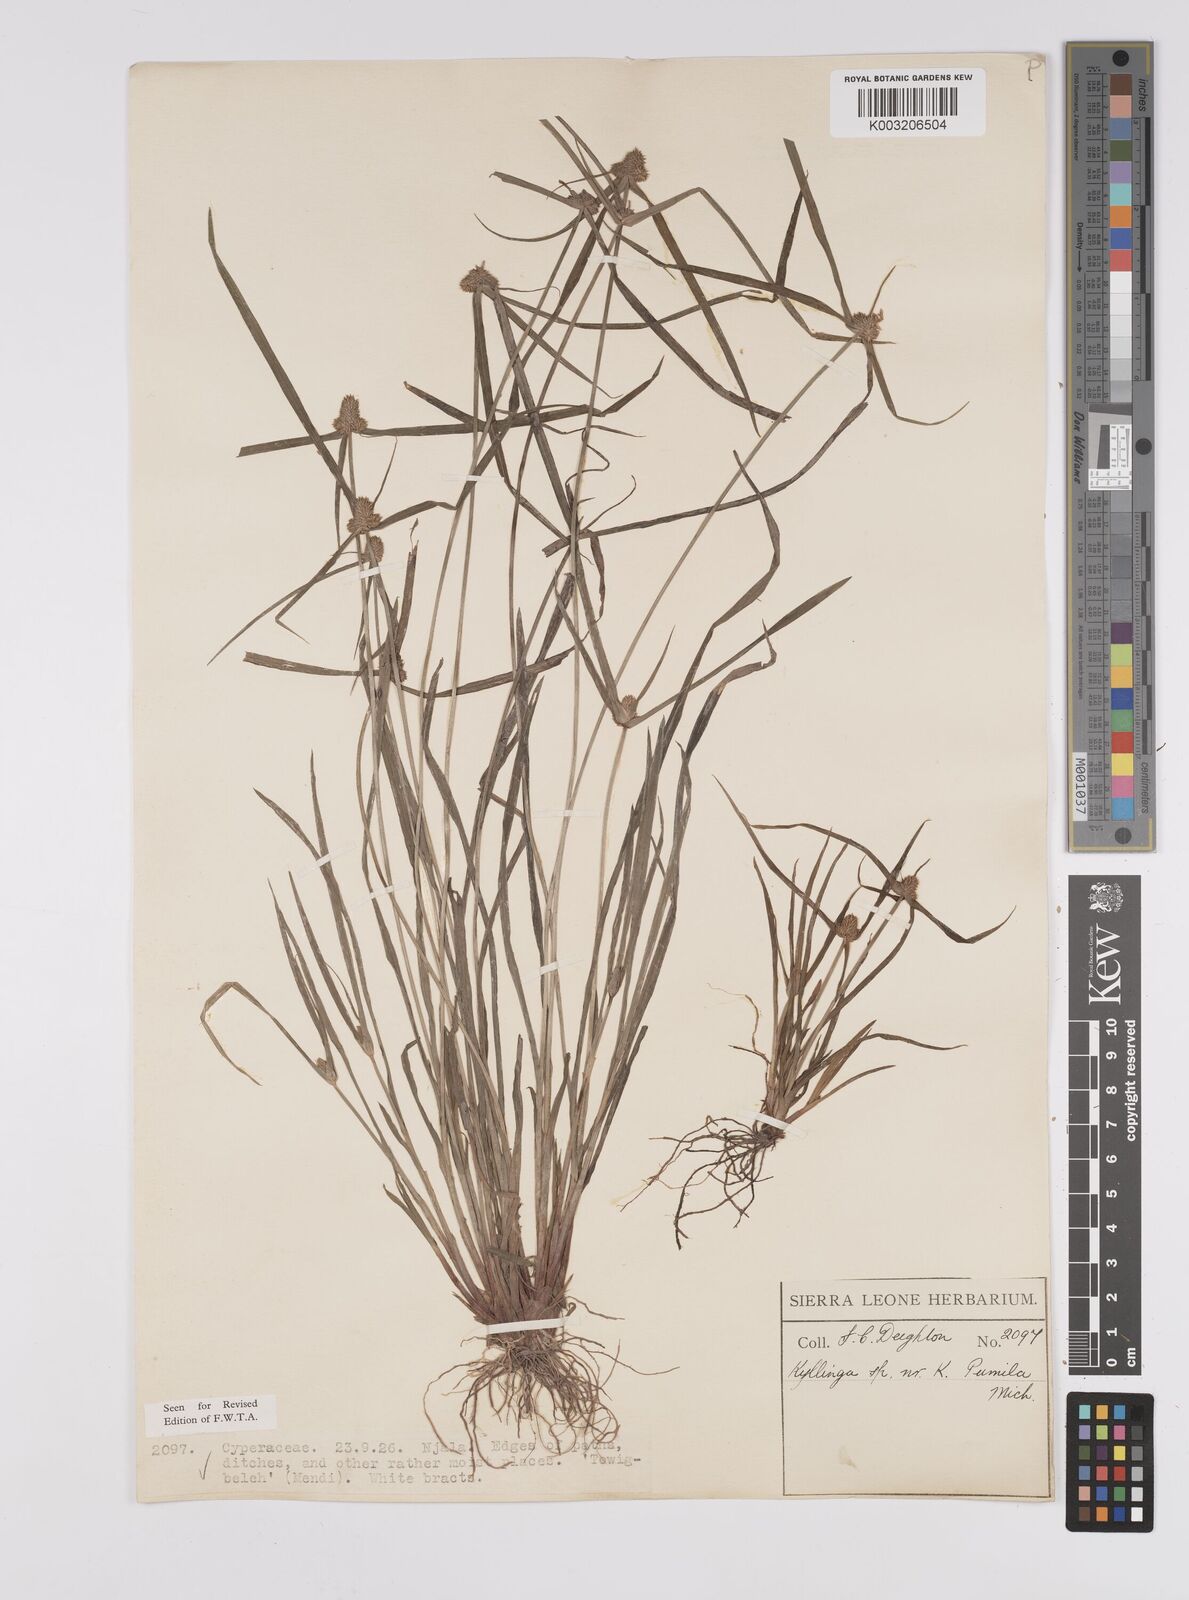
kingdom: Plantae
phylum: Tracheophyta
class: Liliopsida
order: Poales
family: Cyperaceae
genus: Cyperus
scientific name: Cyperus
